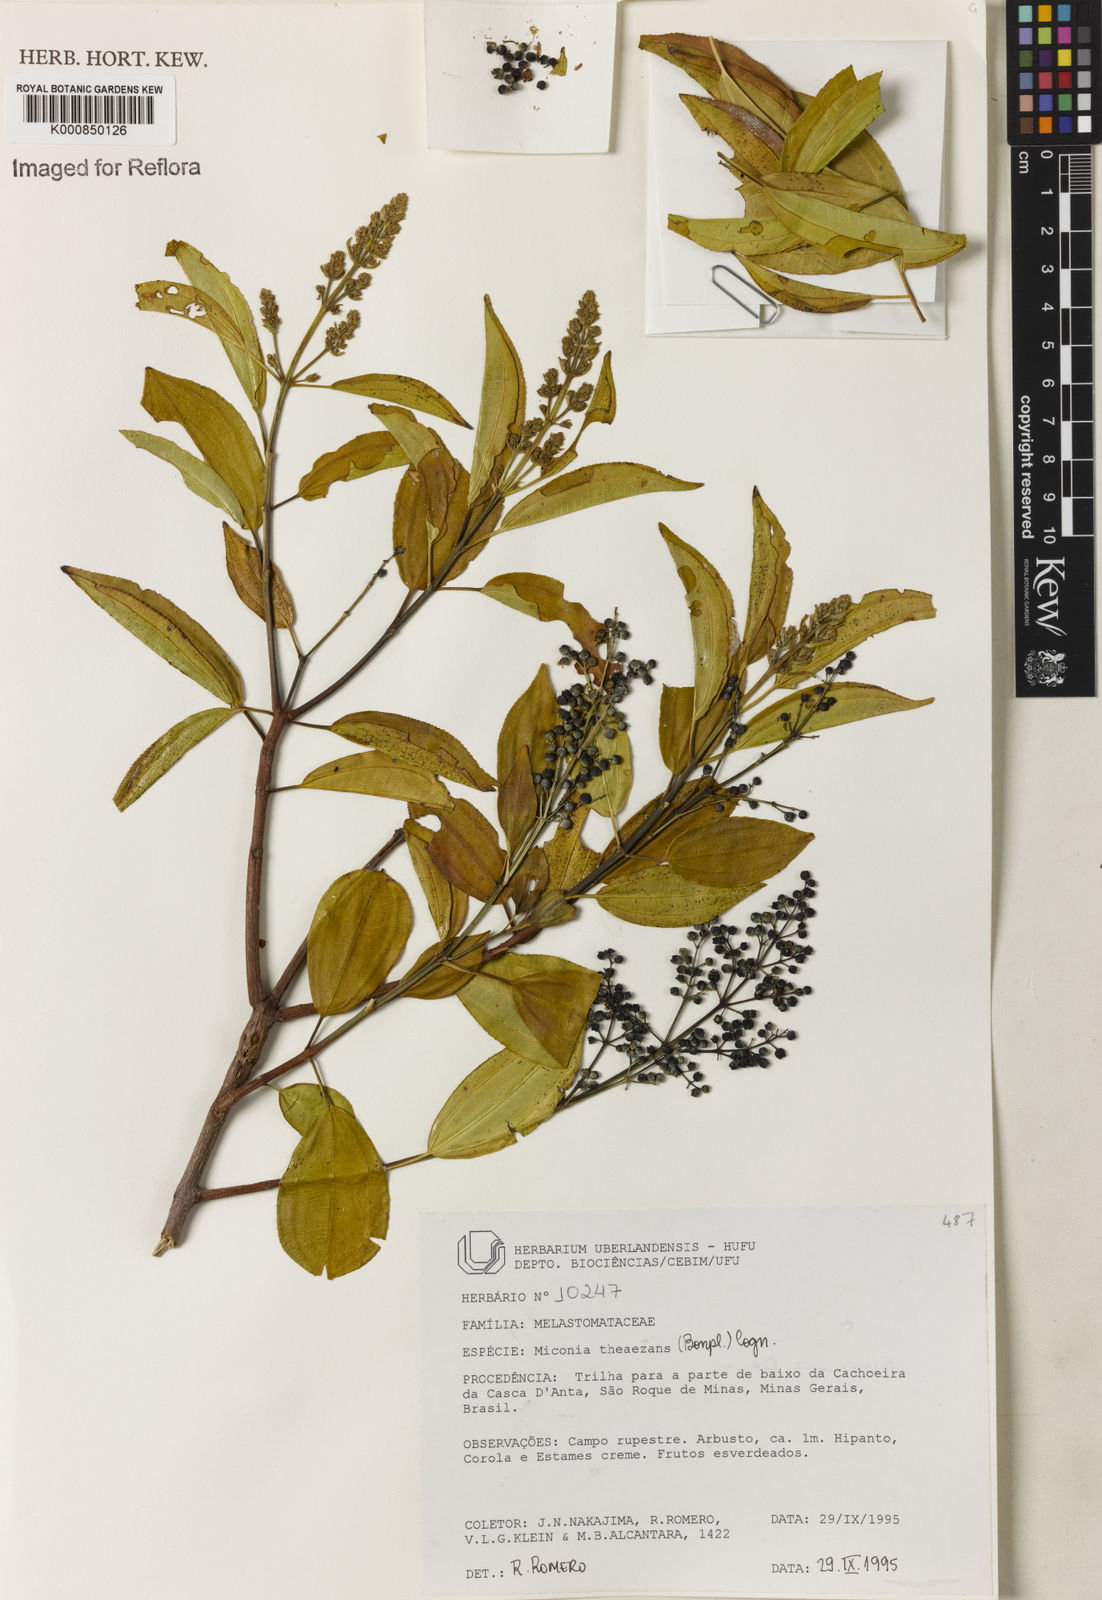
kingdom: Plantae
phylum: Tracheophyta
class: Magnoliopsida
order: Myrtales
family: Melastomataceae
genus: Miconia
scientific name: Miconia
